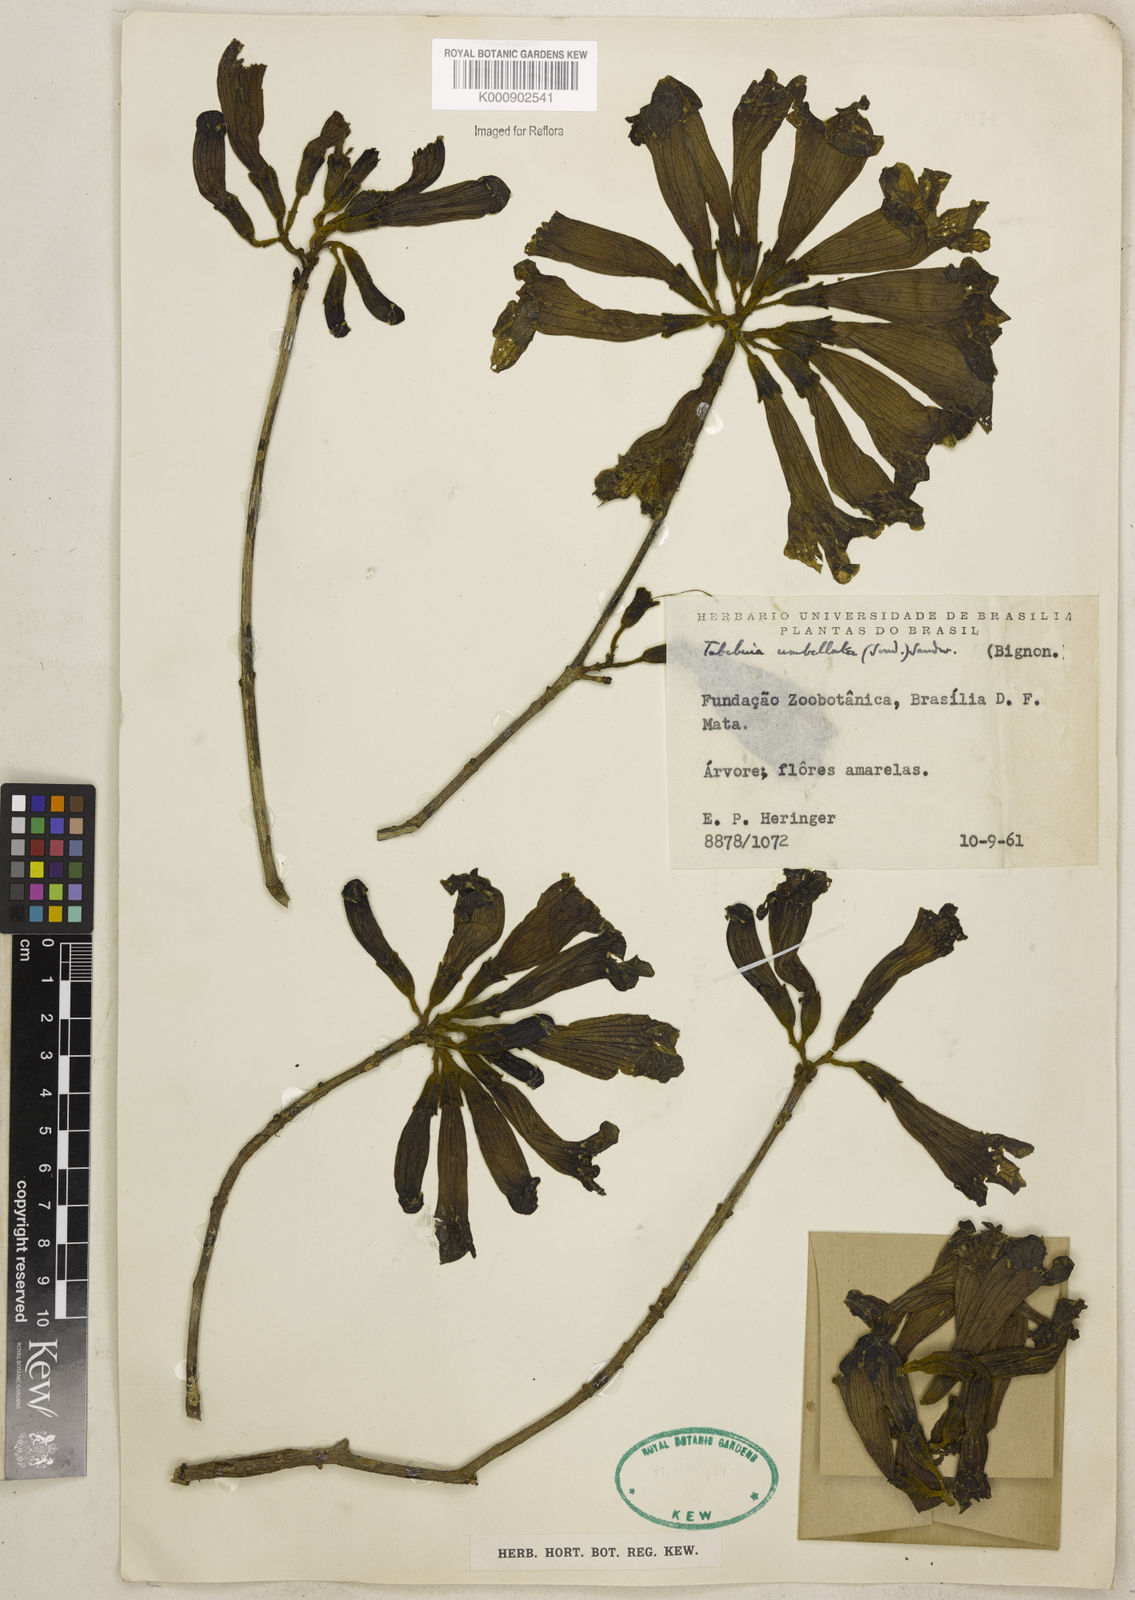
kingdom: Plantae
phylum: Tracheophyta
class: Magnoliopsida
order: Lamiales
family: Bignoniaceae
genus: Handroanthus
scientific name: Handroanthus umbellatus
